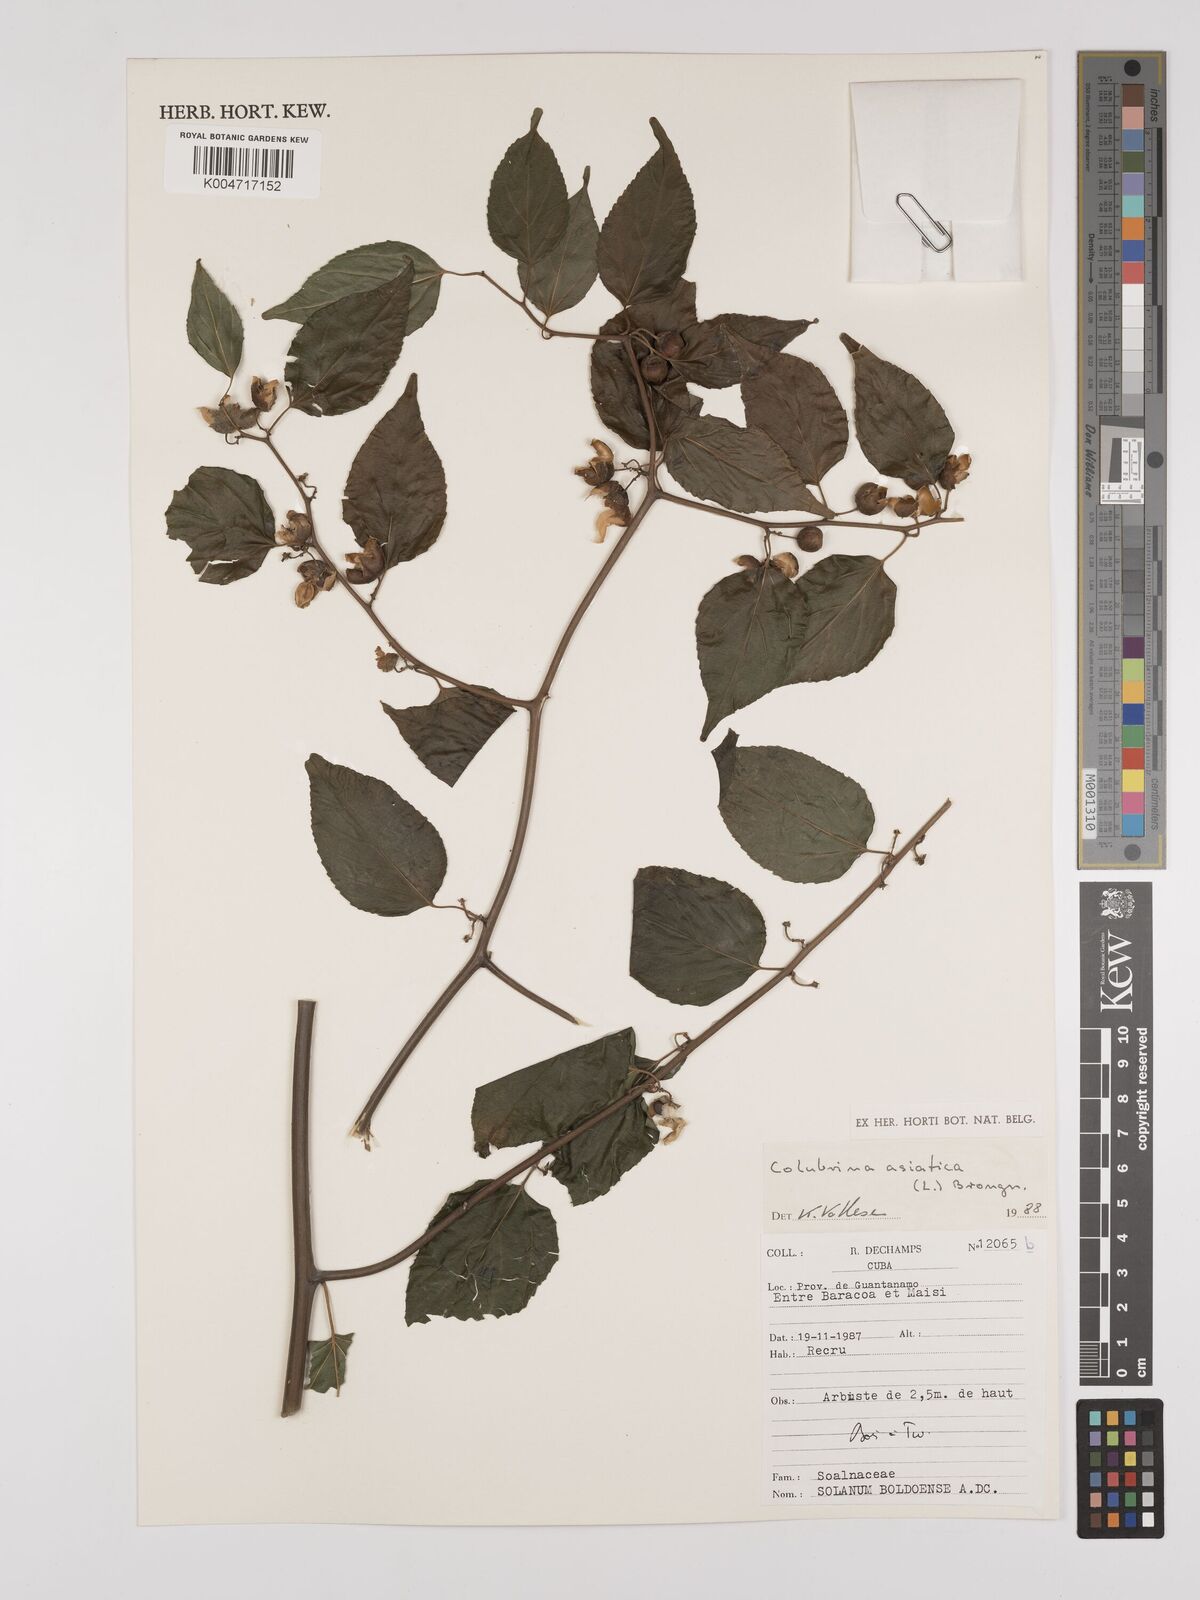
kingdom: Plantae
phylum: Tracheophyta
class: Magnoliopsida
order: Rosales
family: Rhamnaceae
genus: Colubrina
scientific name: Colubrina asiatica
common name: Asian nakedwood
